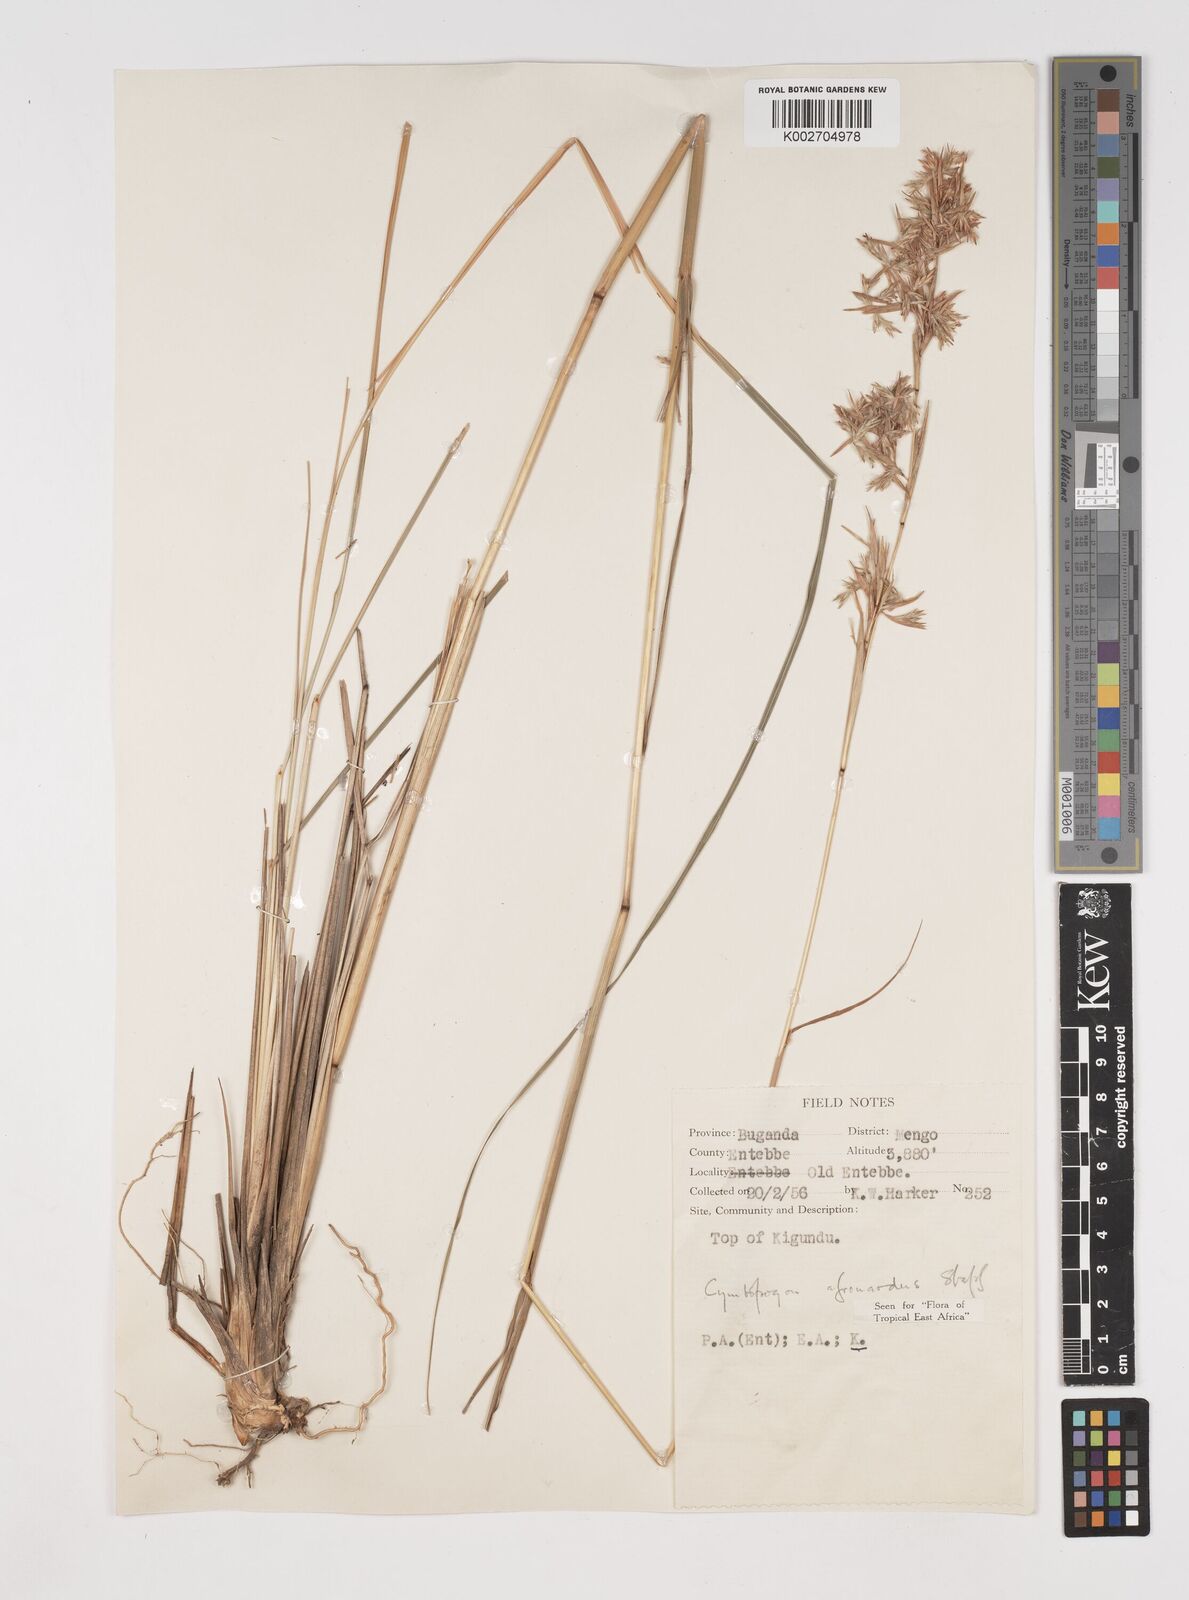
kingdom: Plantae
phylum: Tracheophyta
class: Liliopsida
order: Poales
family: Poaceae
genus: Cymbopogon
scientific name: Cymbopogon nardus
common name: Giant turpentine grass
